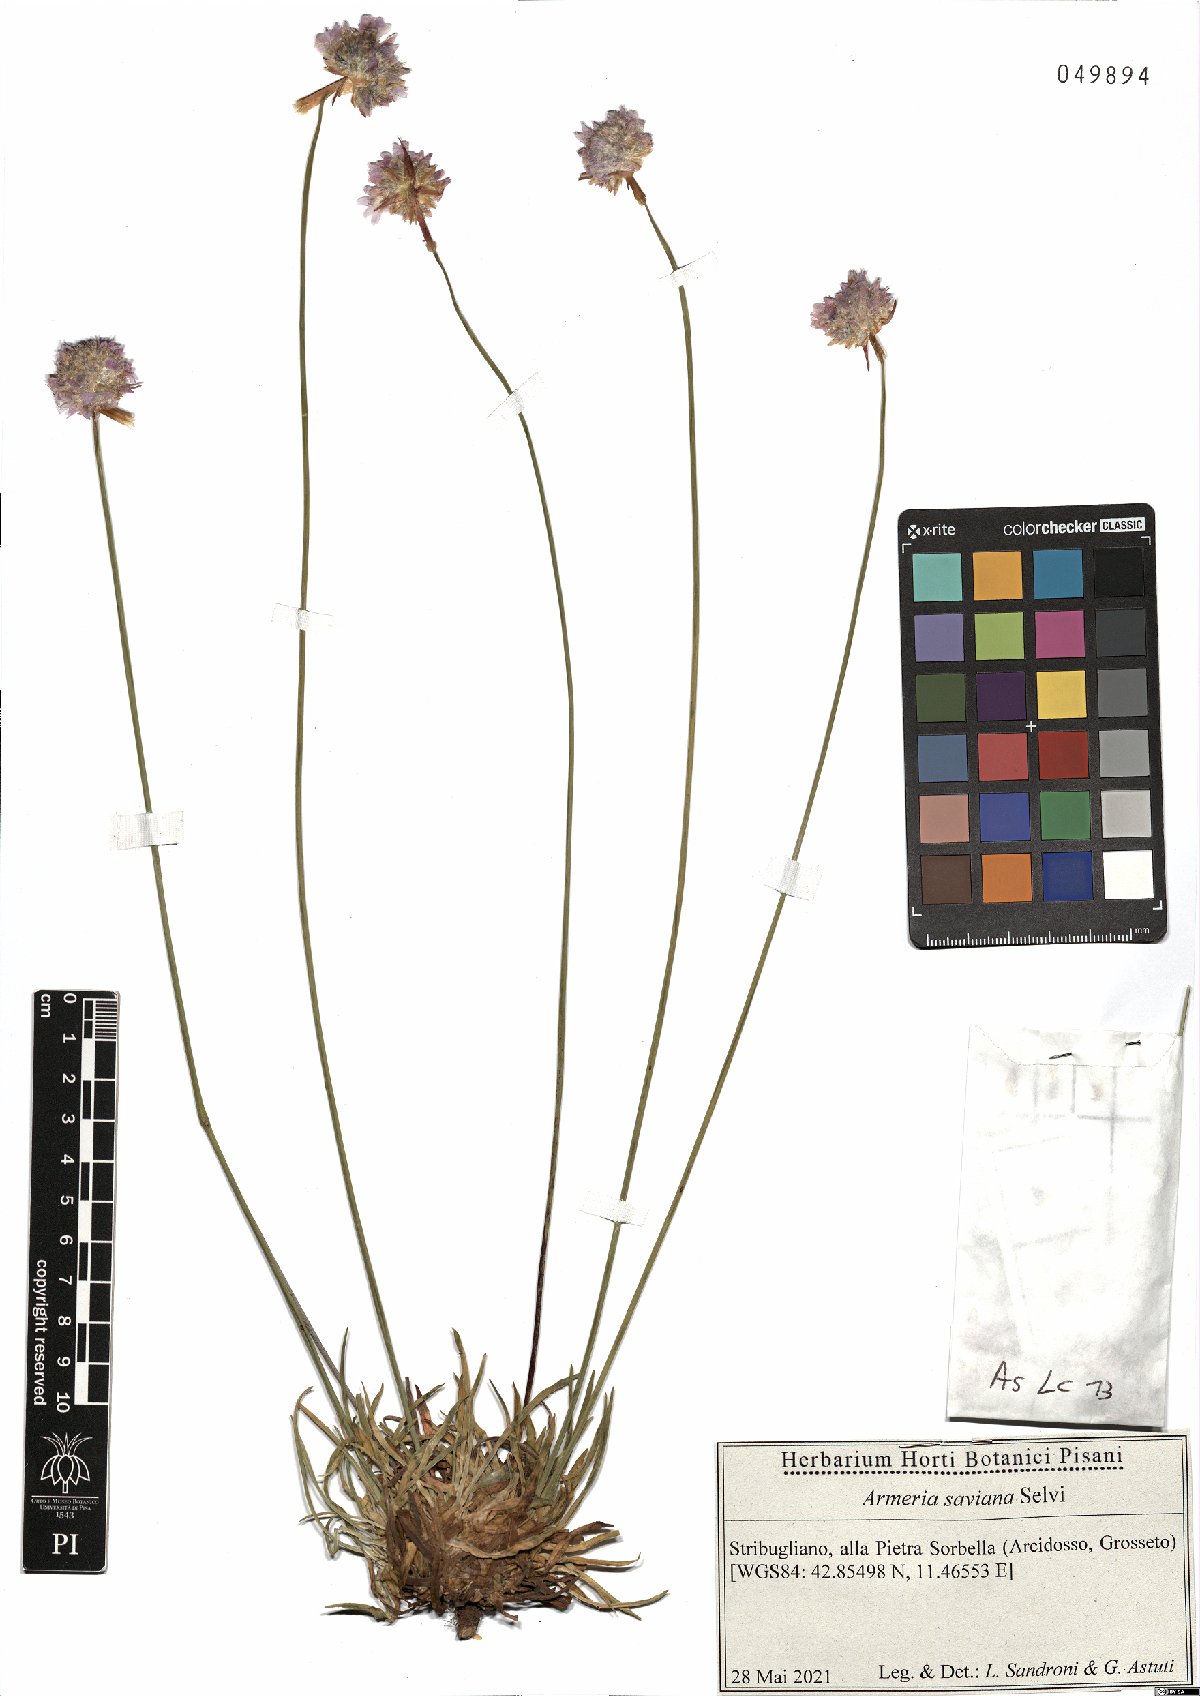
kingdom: Plantae
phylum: Tracheophyta
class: Magnoliopsida
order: Caryophyllales
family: Plumbaginaceae
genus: Armeria
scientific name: Armeria saviana
